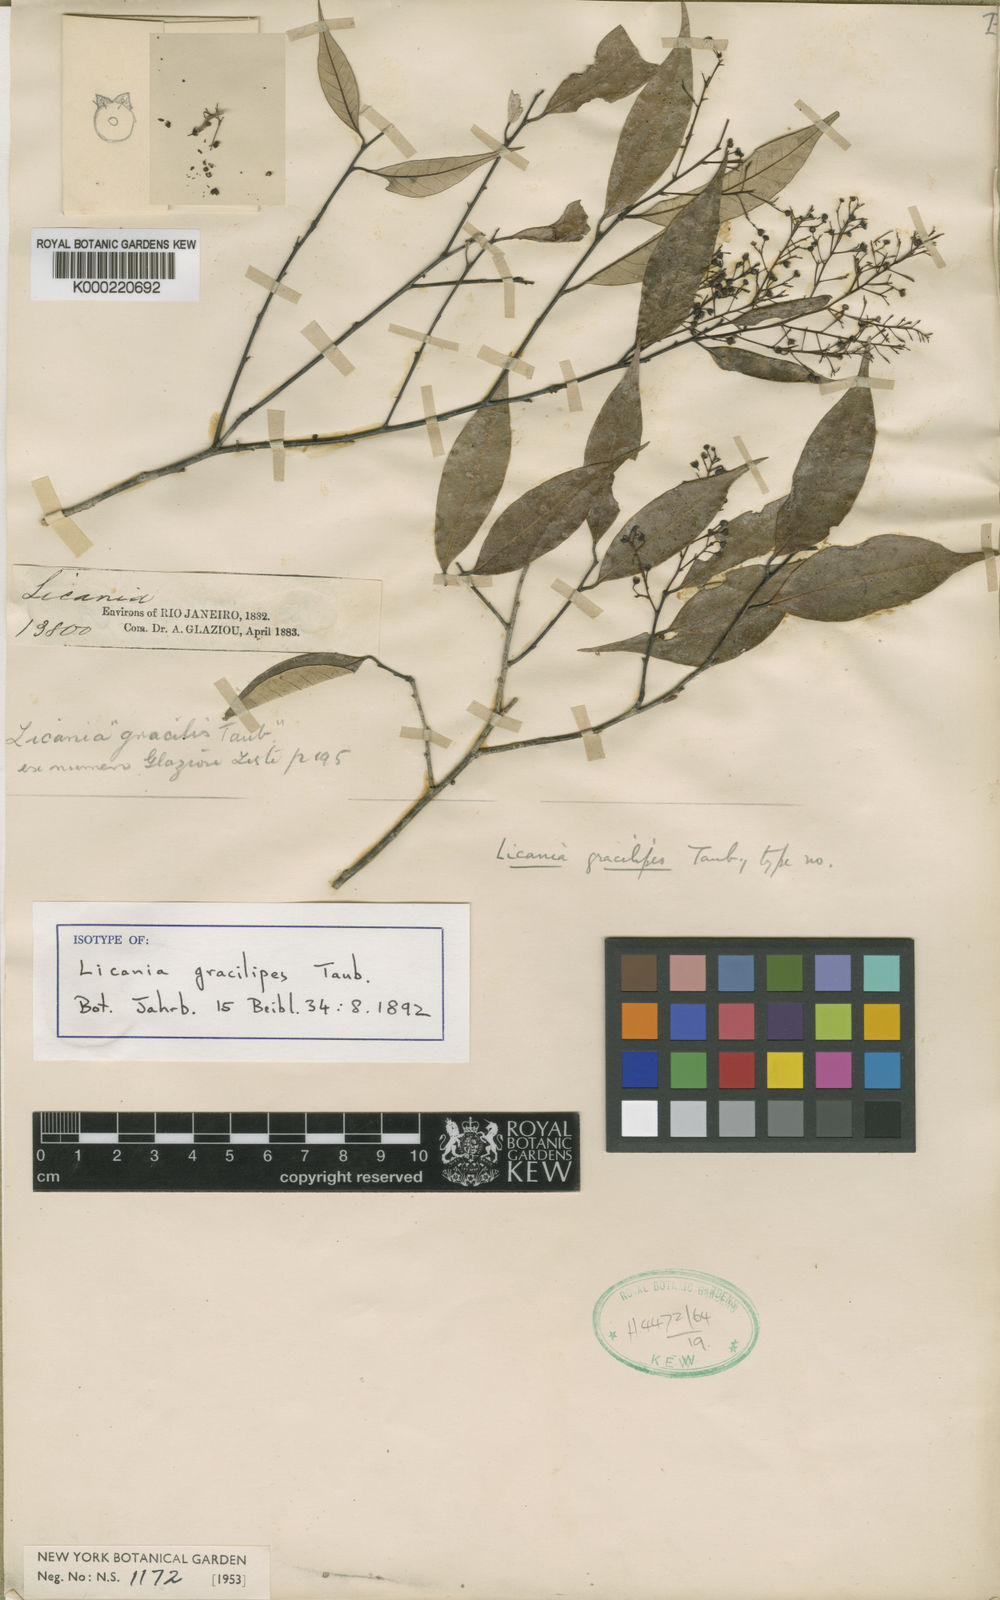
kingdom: Plantae
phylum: Tracheophyta
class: Magnoliopsida
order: Malpighiales
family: Chrysobalanaceae
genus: Licania
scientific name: Licania gracilipes
